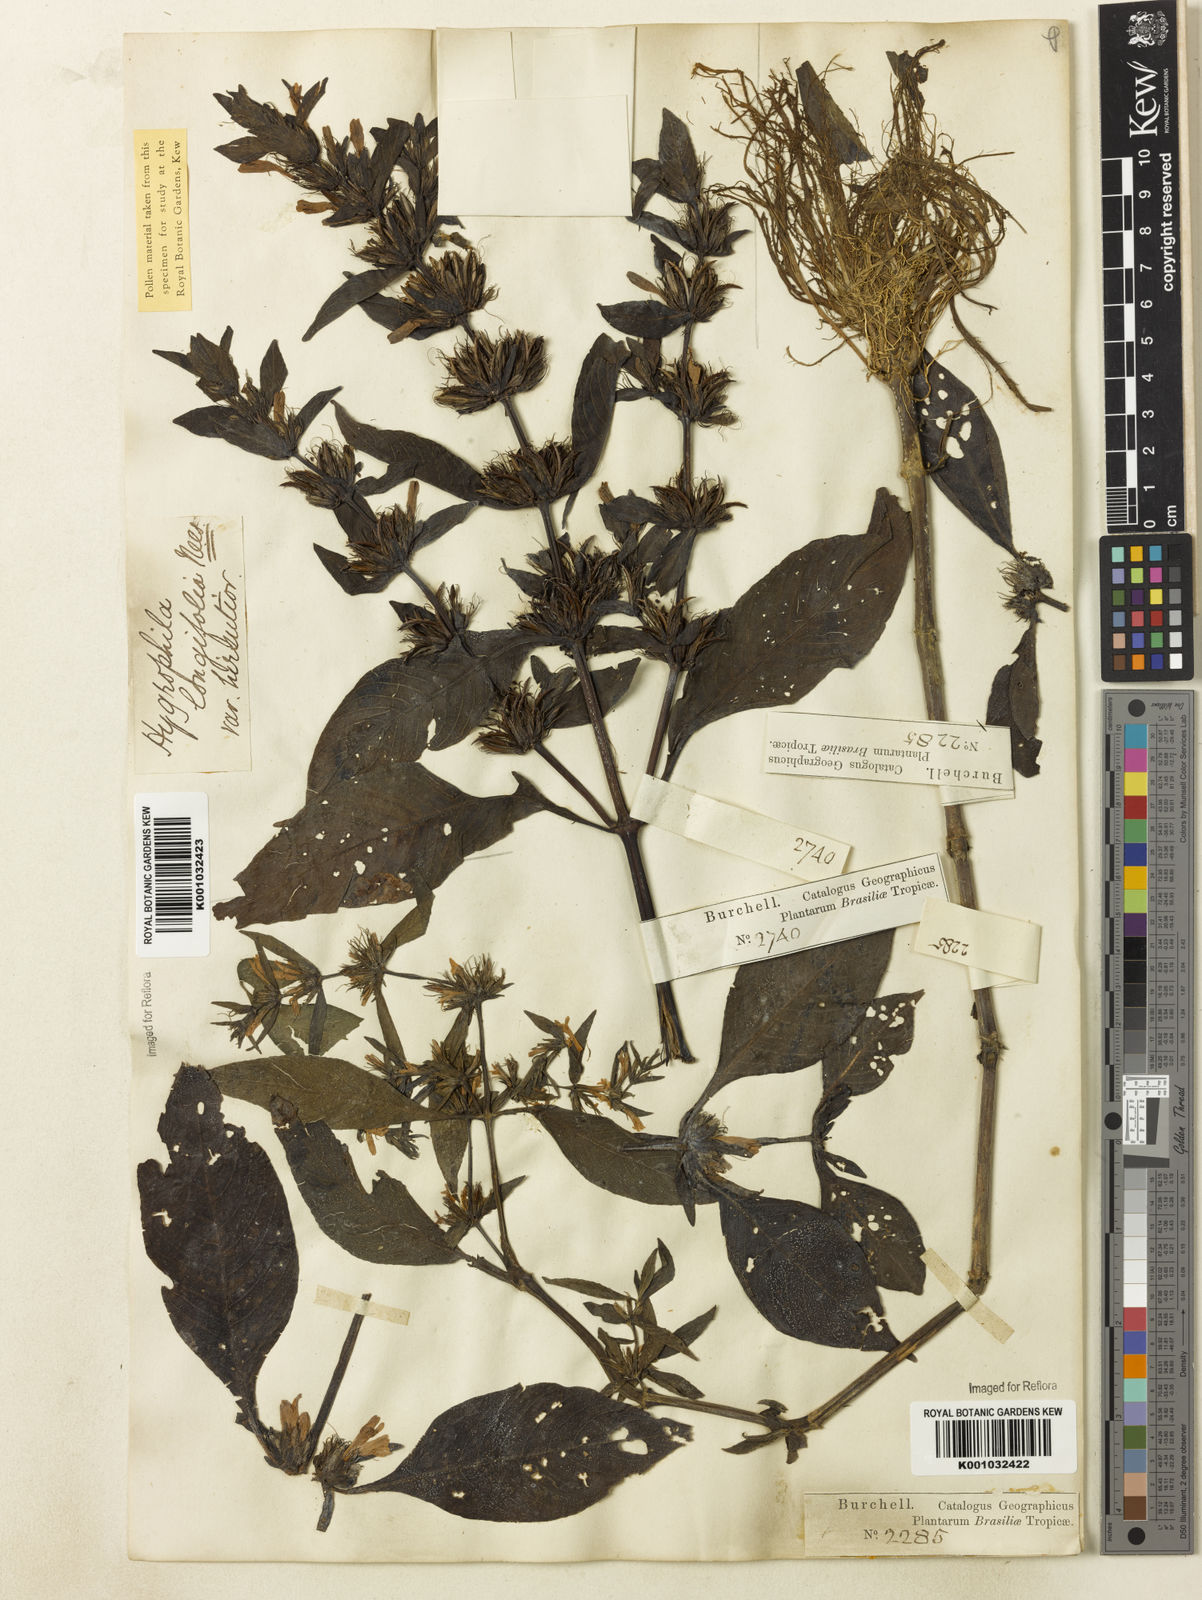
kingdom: Plantae
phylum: Tracheophyta
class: Magnoliopsida
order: Lamiales
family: Acanthaceae
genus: Hygrophila
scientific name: Hygrophila costata
